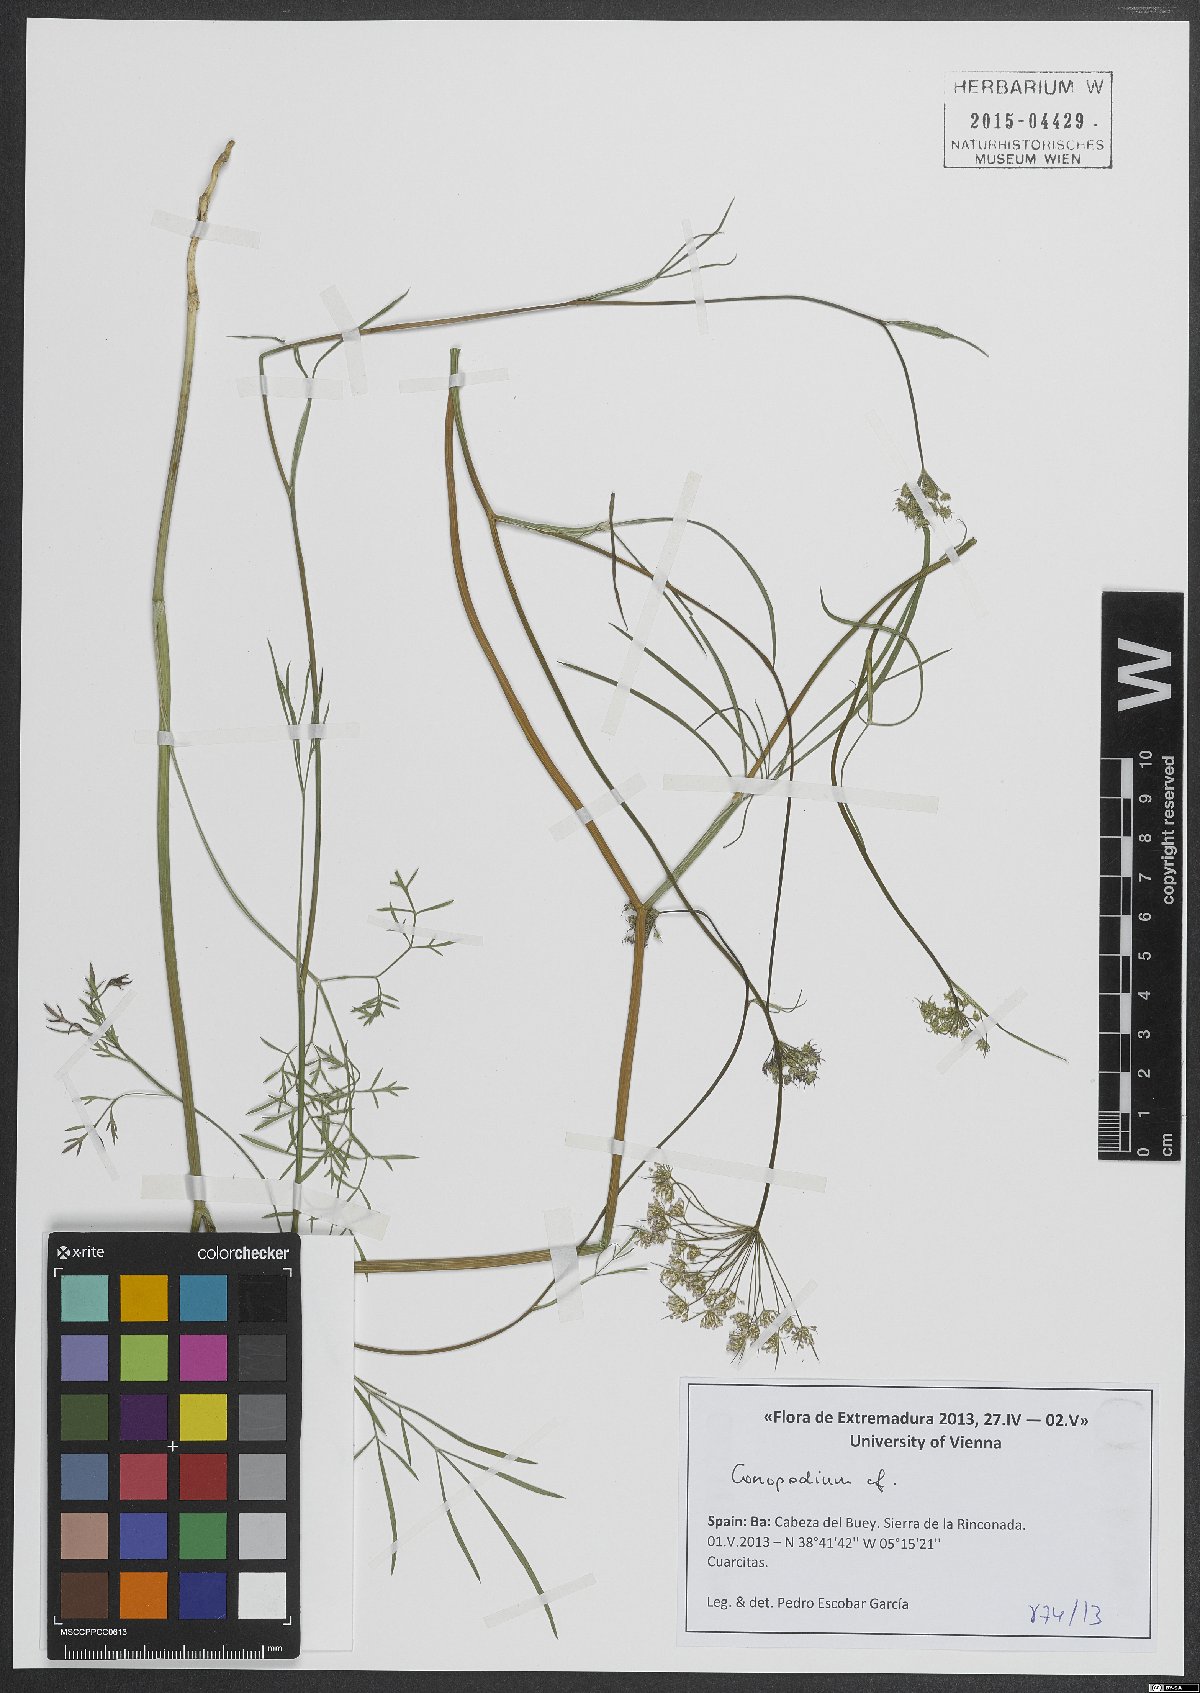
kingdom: Plantae
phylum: Tracheophyta
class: Magnoliopsida
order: Apiales
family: Apiaceae
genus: Conopodium
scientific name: Conopodium
